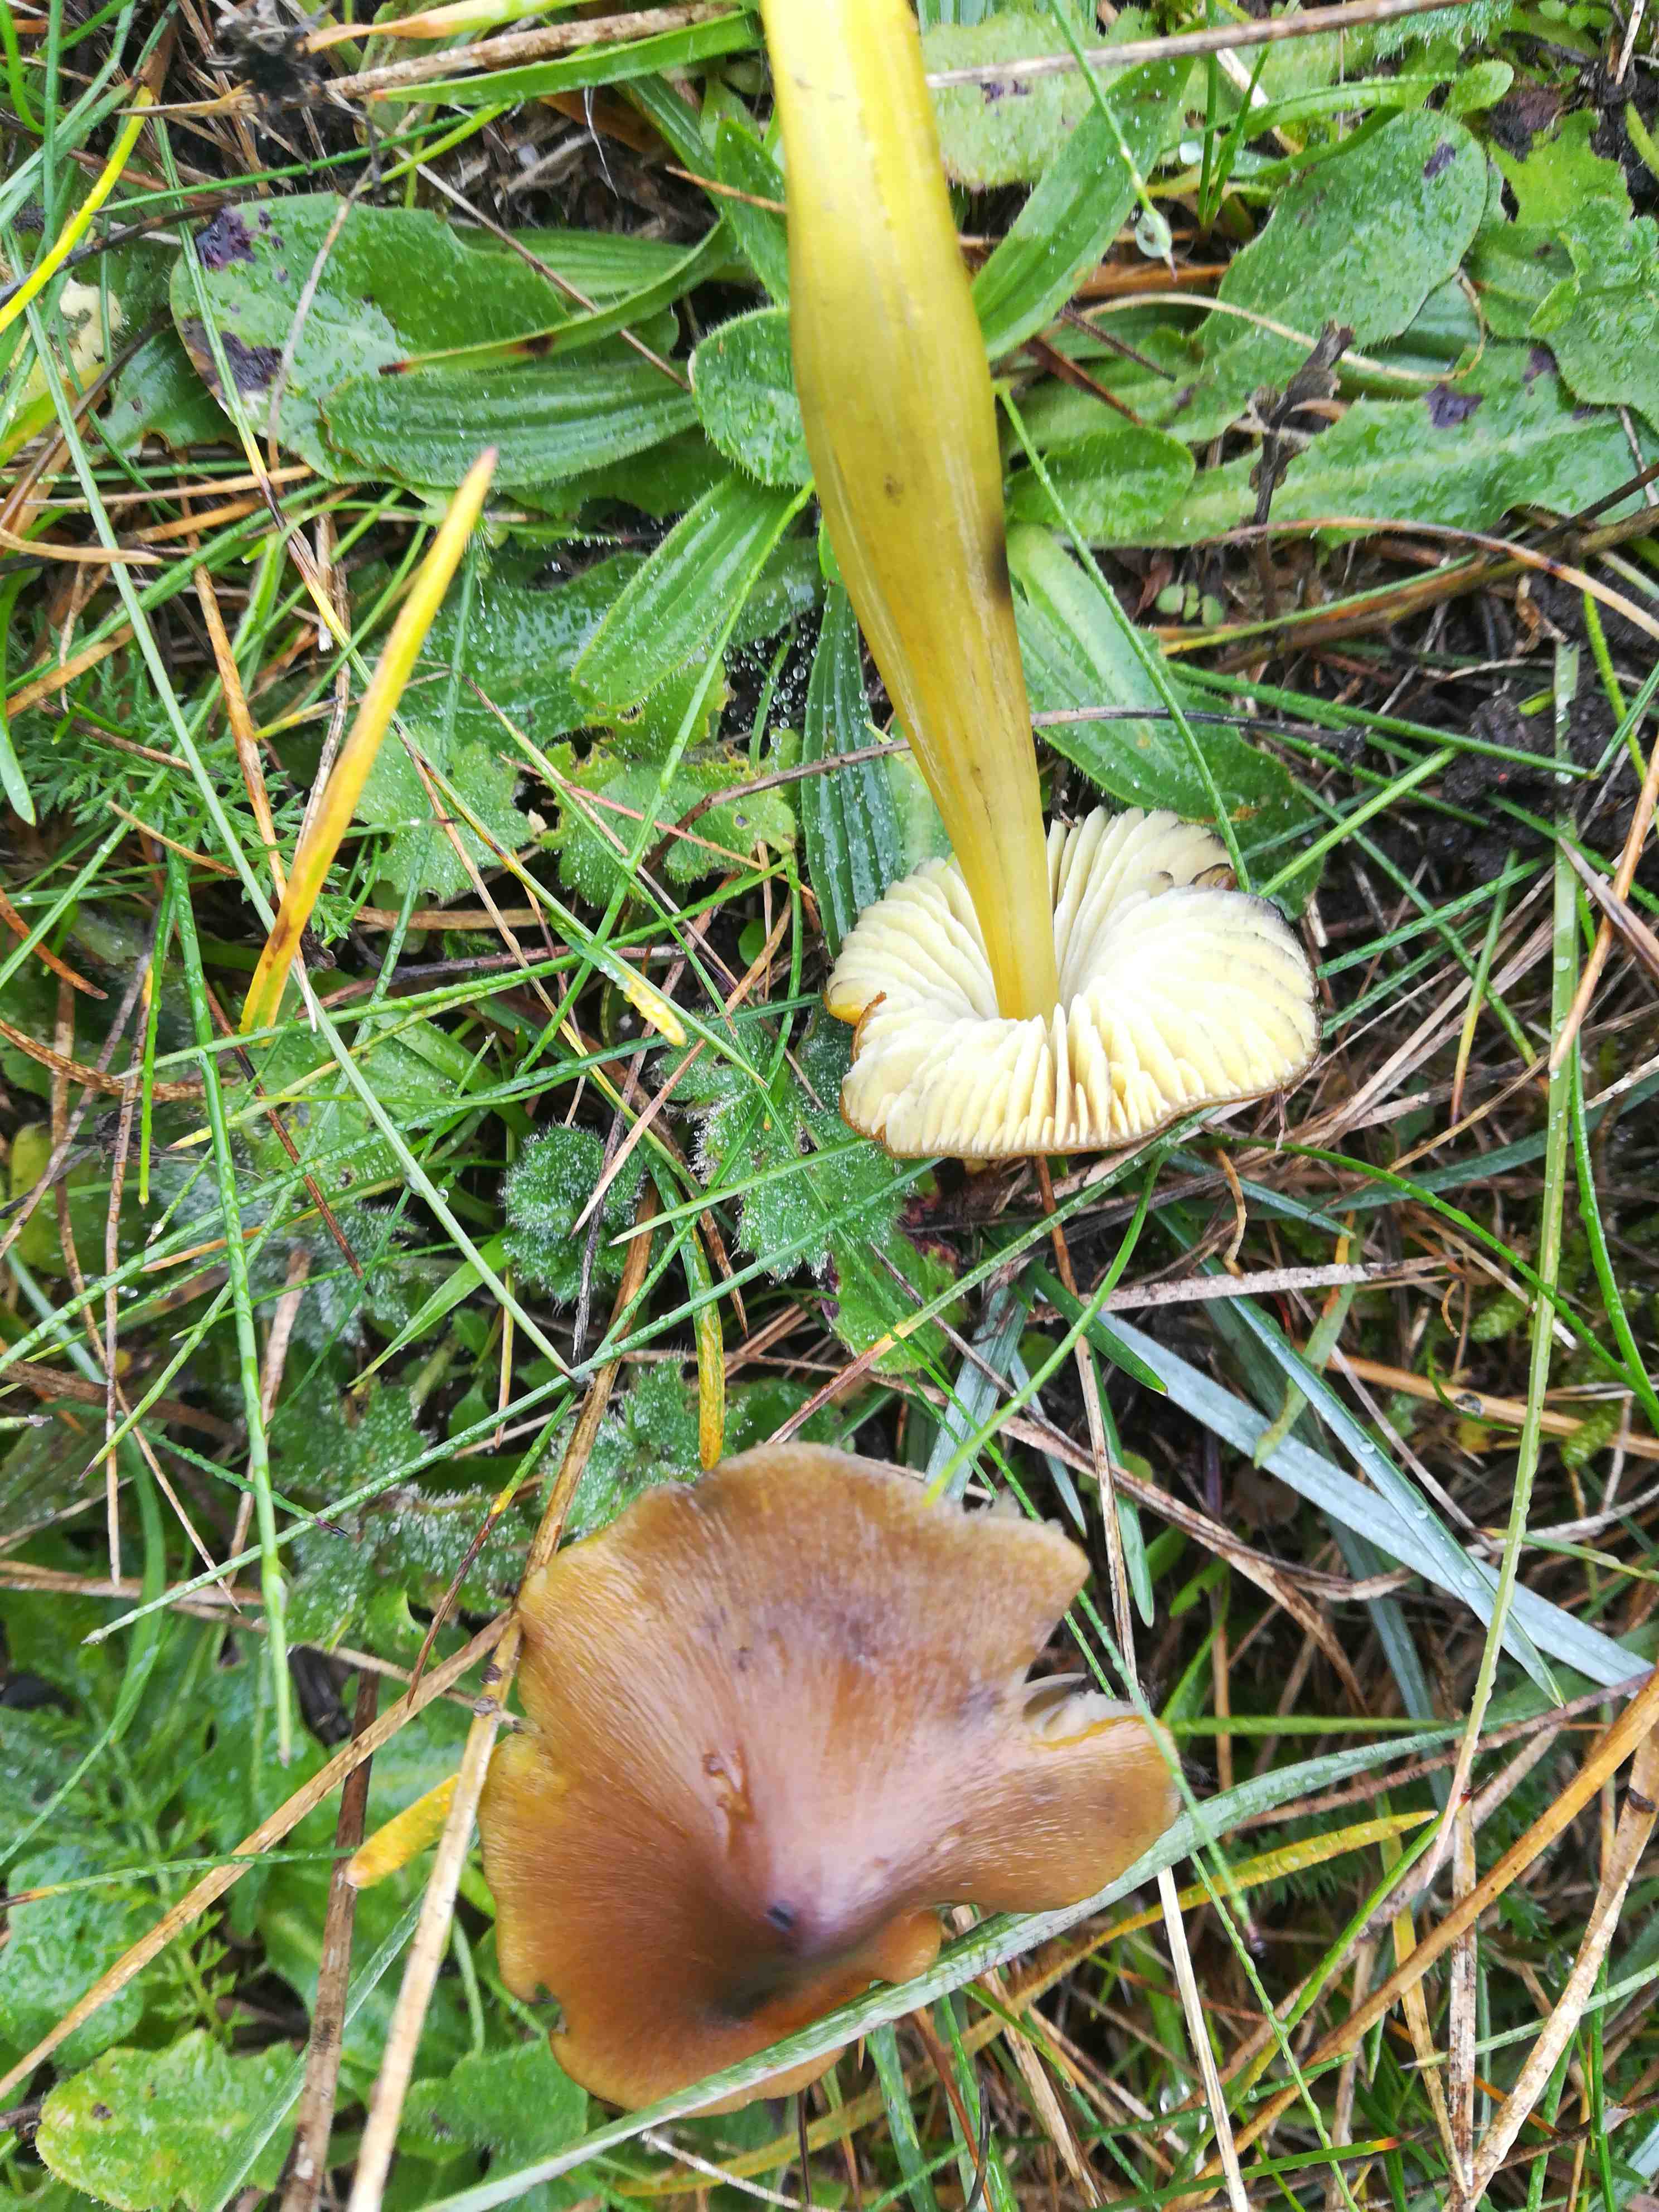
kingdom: Fungi
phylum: Basidiomycota
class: Agaricomycetes
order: Agaricales
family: Hygrophoraceae
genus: Hygrocybe
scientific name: Hygrocybe conica
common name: kegle-vokshat
